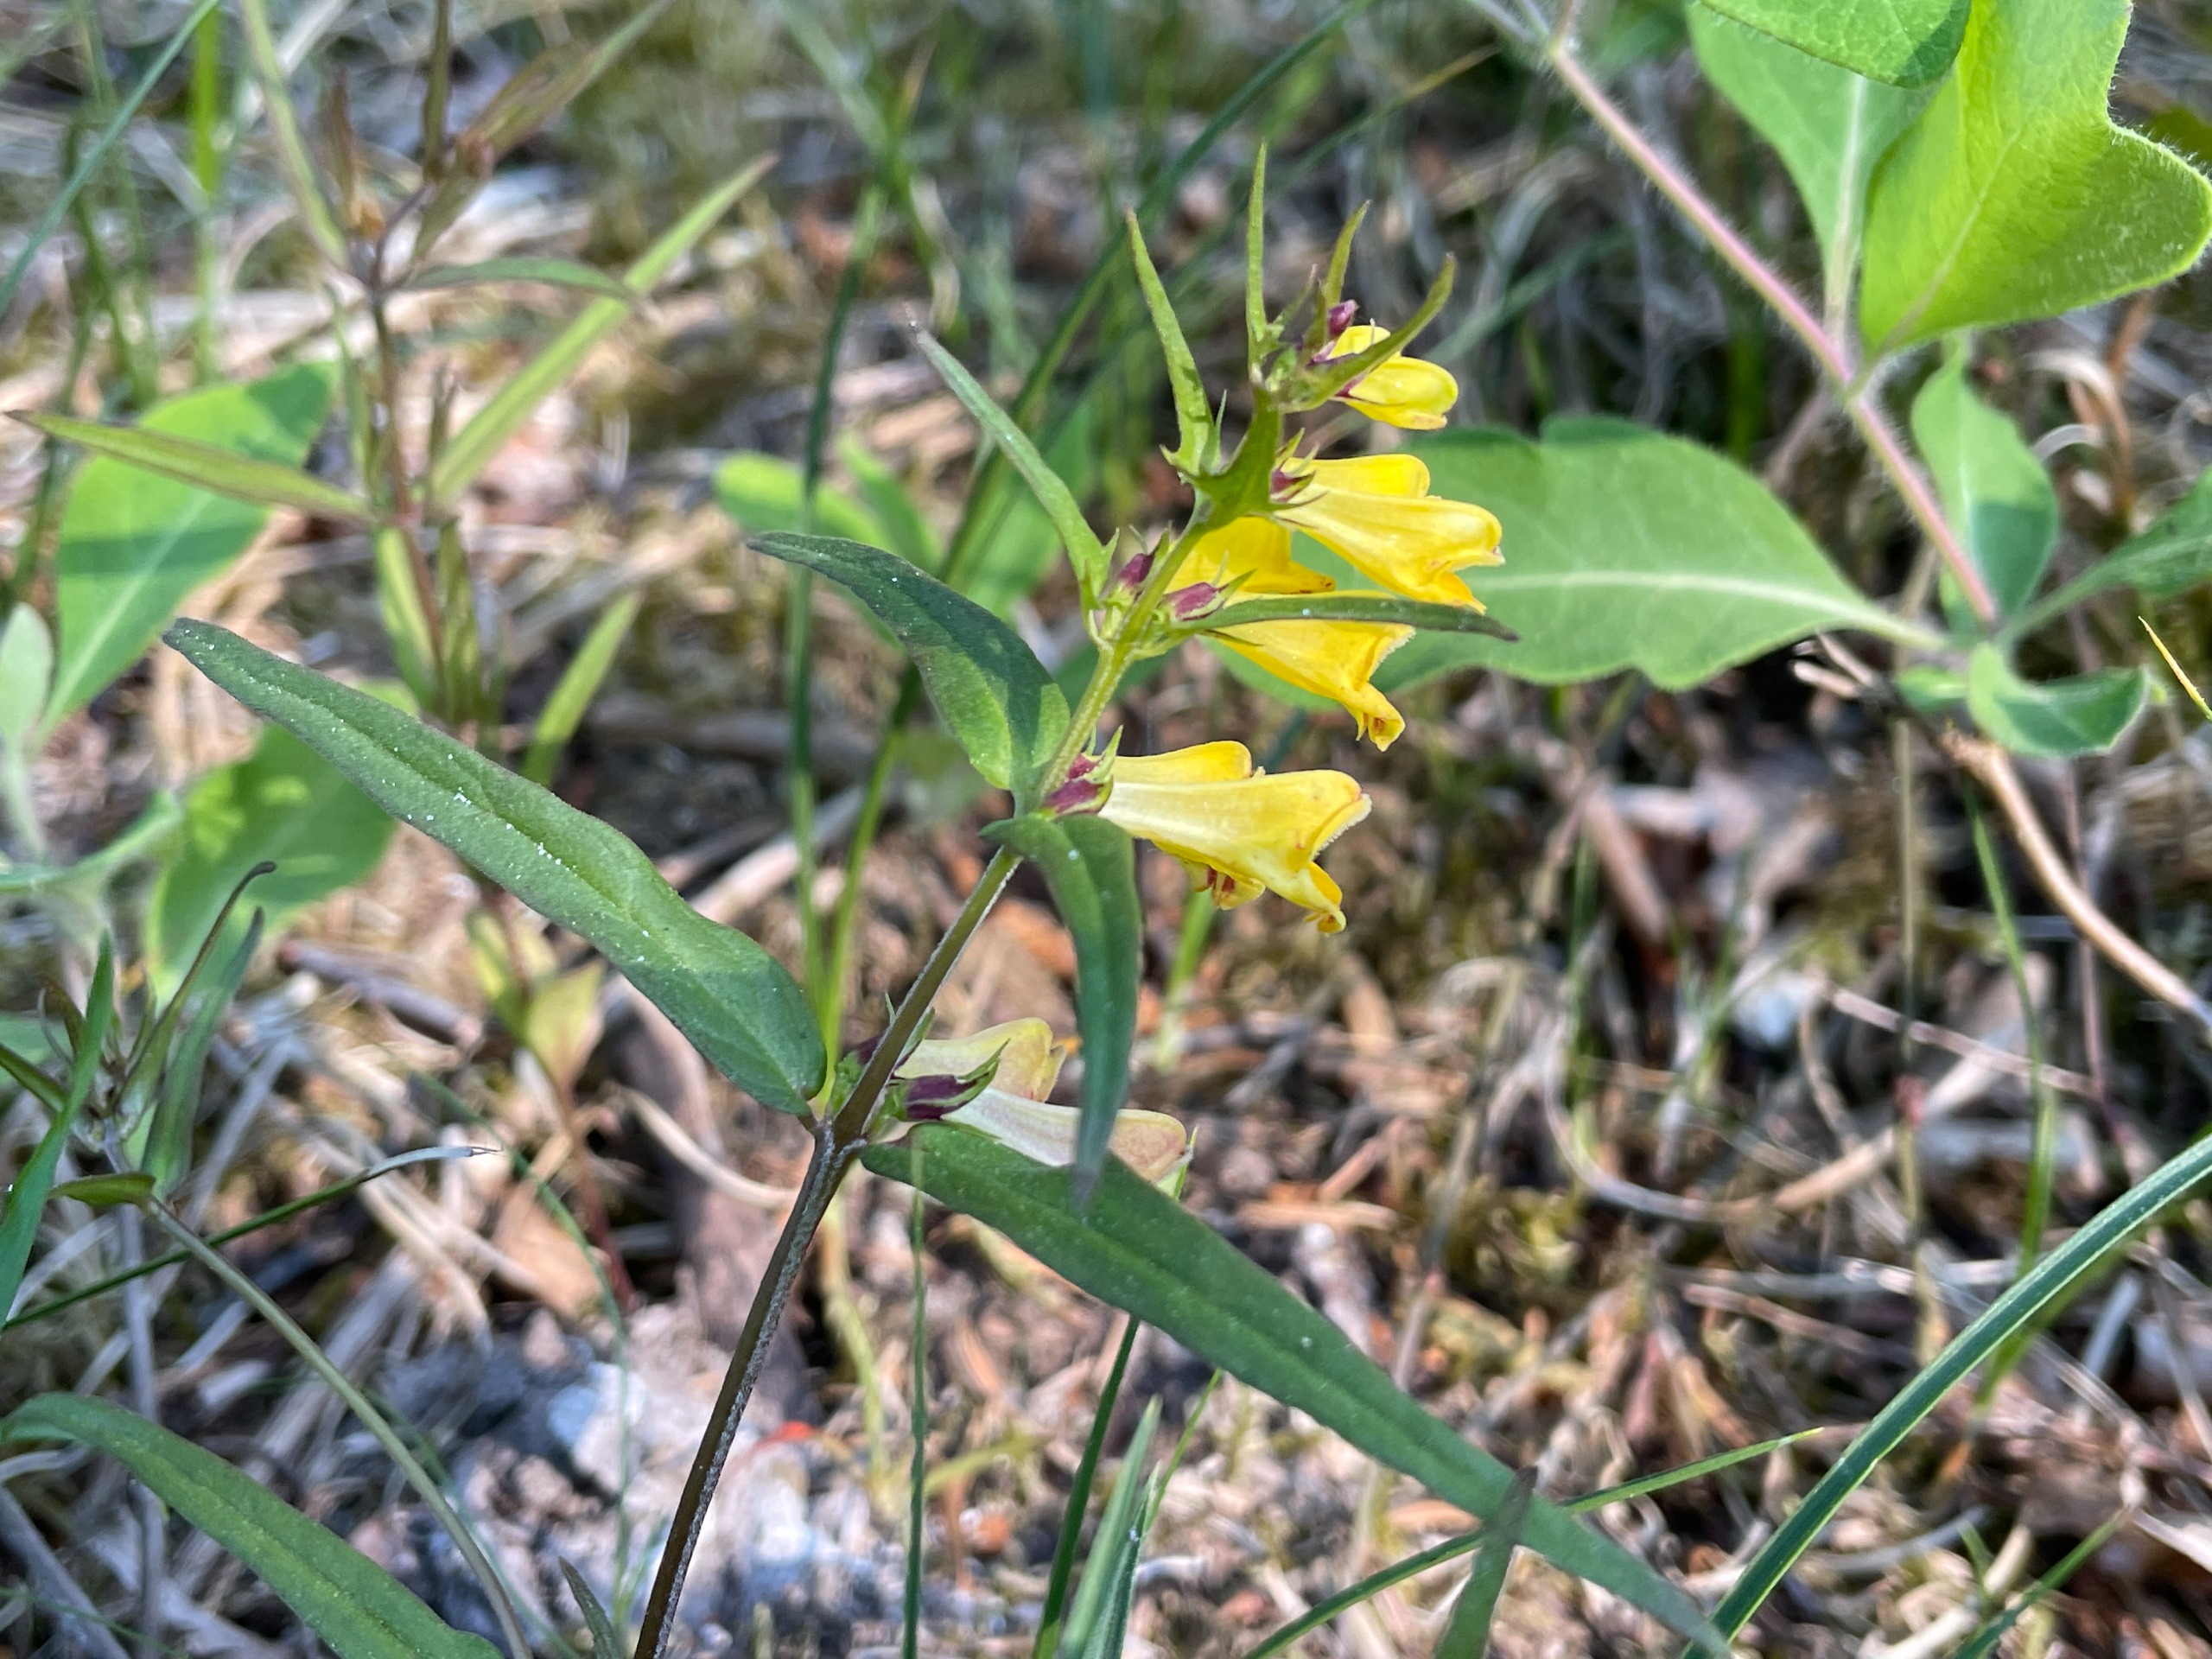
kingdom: Plantae
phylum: Tracheophyta
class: Magnoliopsida
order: Lamiales
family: Orobanchaceae
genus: Melampyrum
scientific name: Melampyrum pratense
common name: Almindelig kohvede
